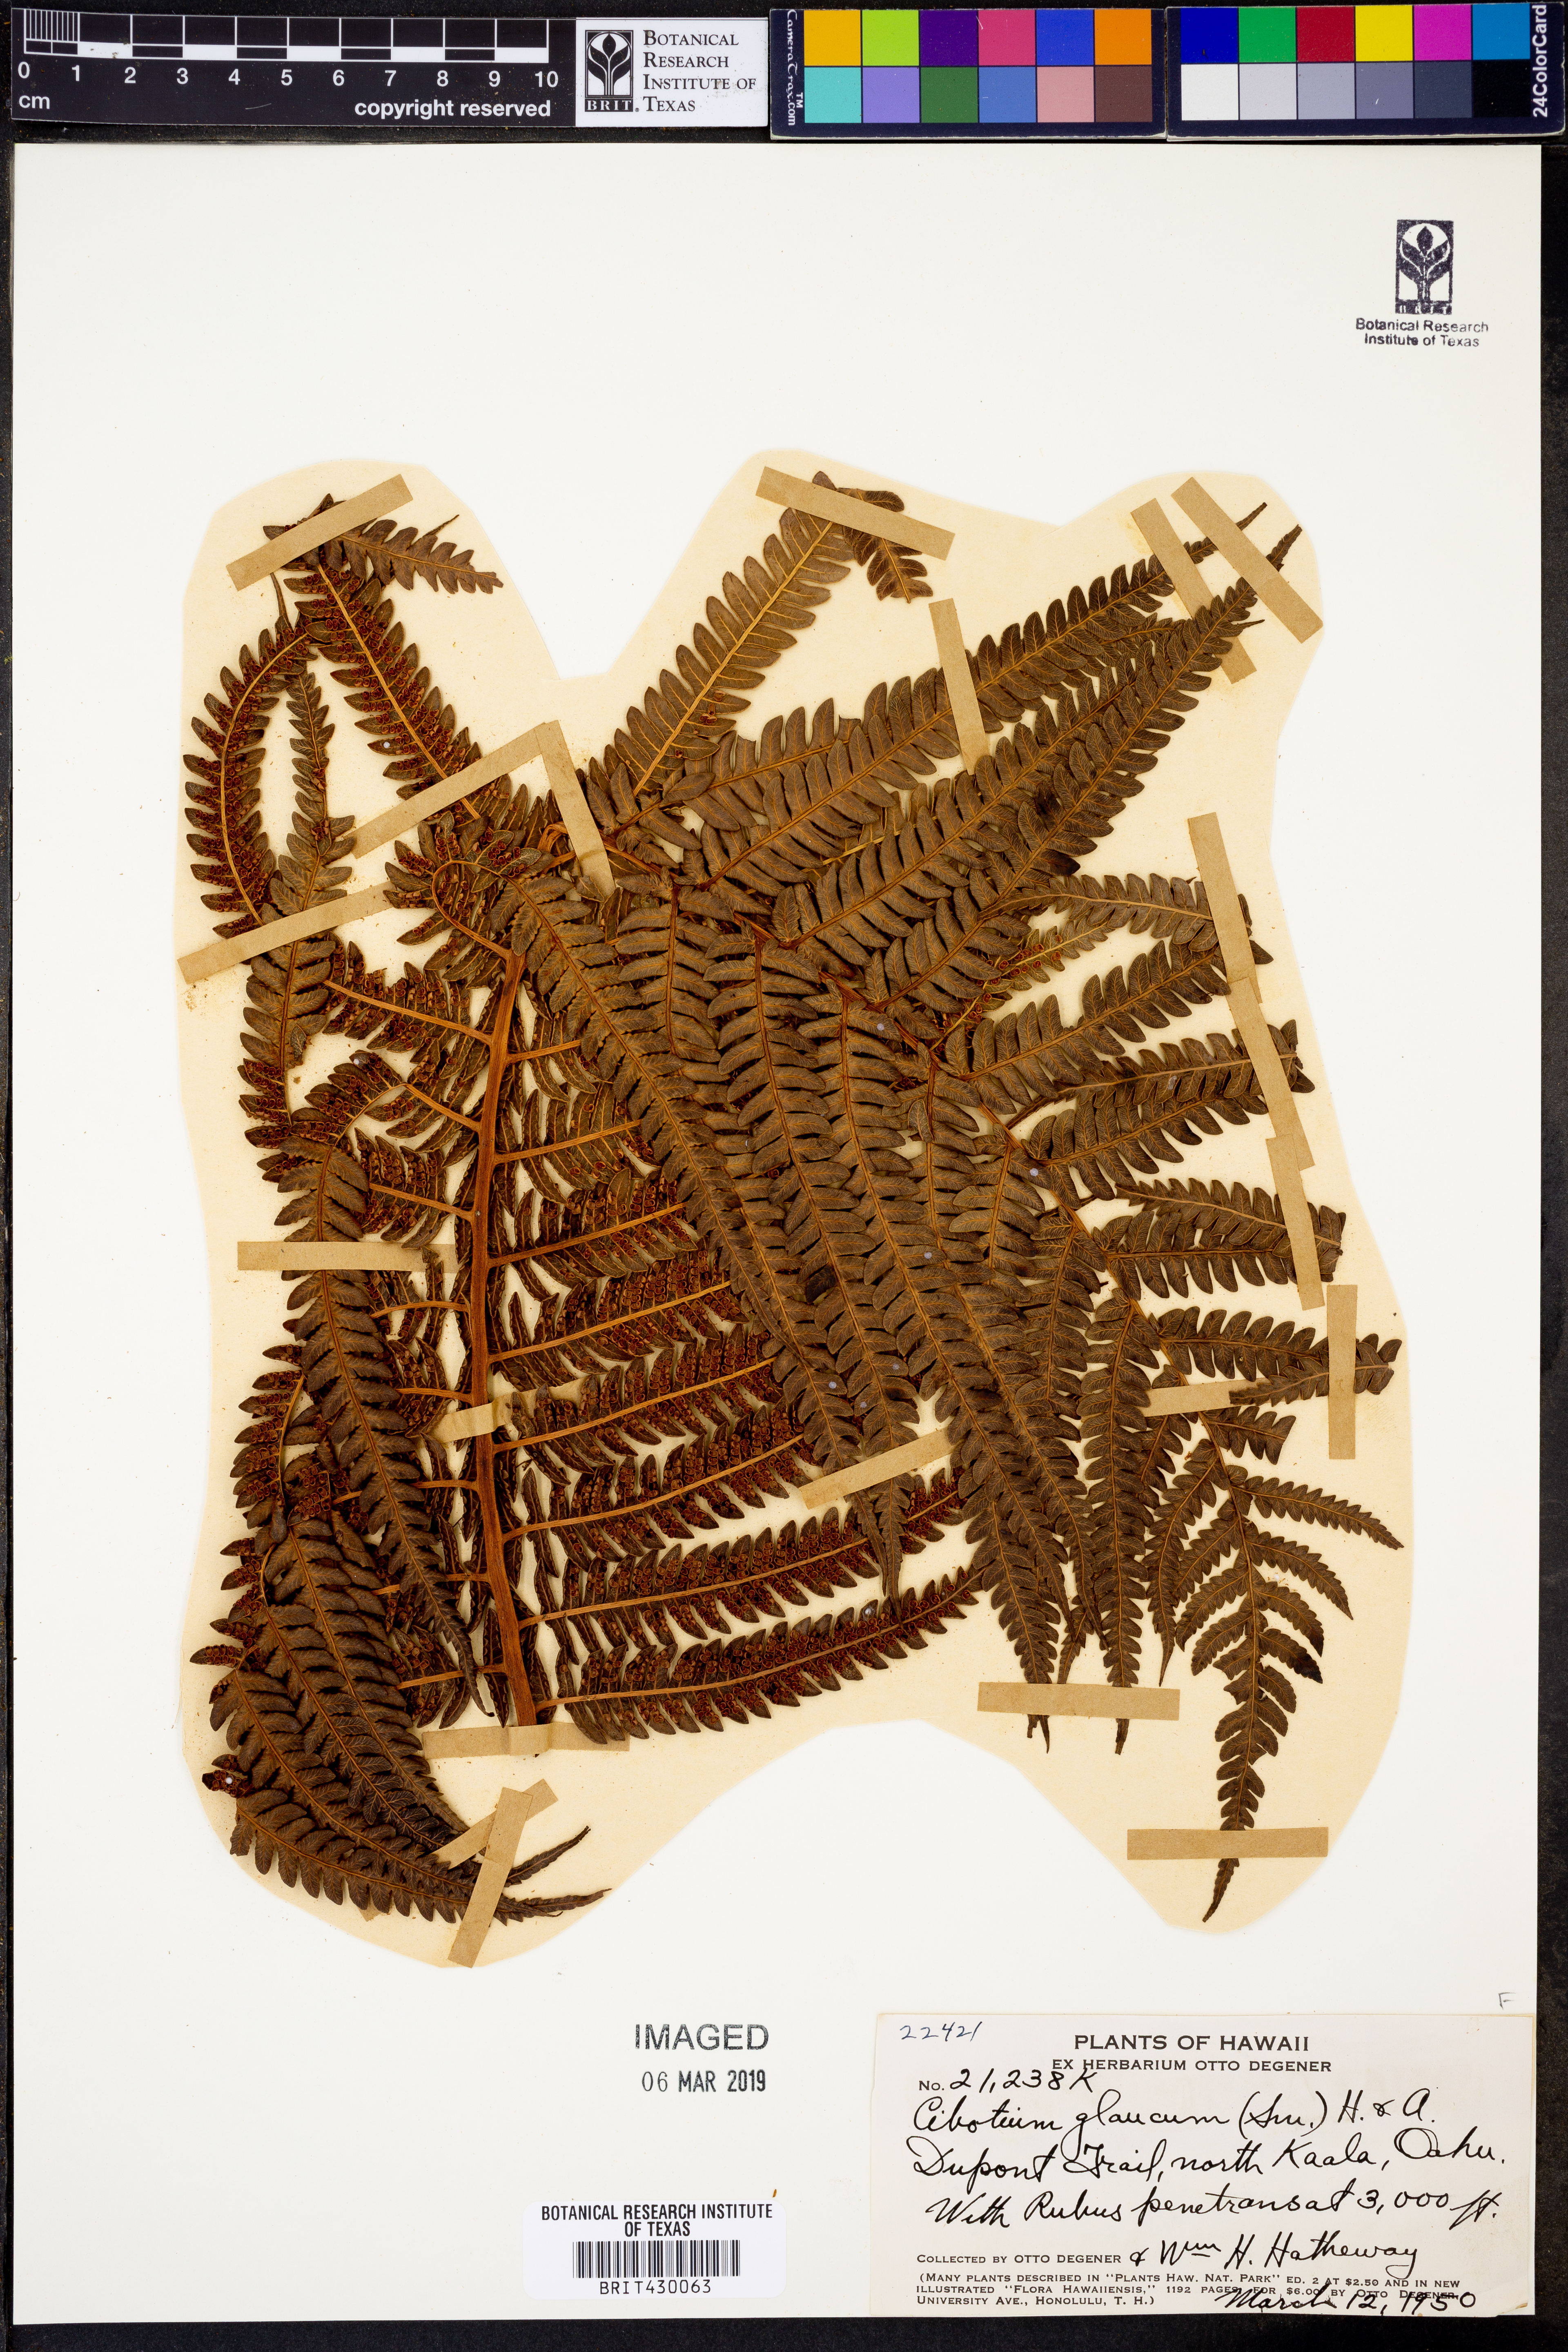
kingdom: Plantae
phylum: Tracheophyta
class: Polypodiopsida
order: Cyatheales
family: Cibotiaceae
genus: Cibotium
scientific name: Cibotium glaucum
